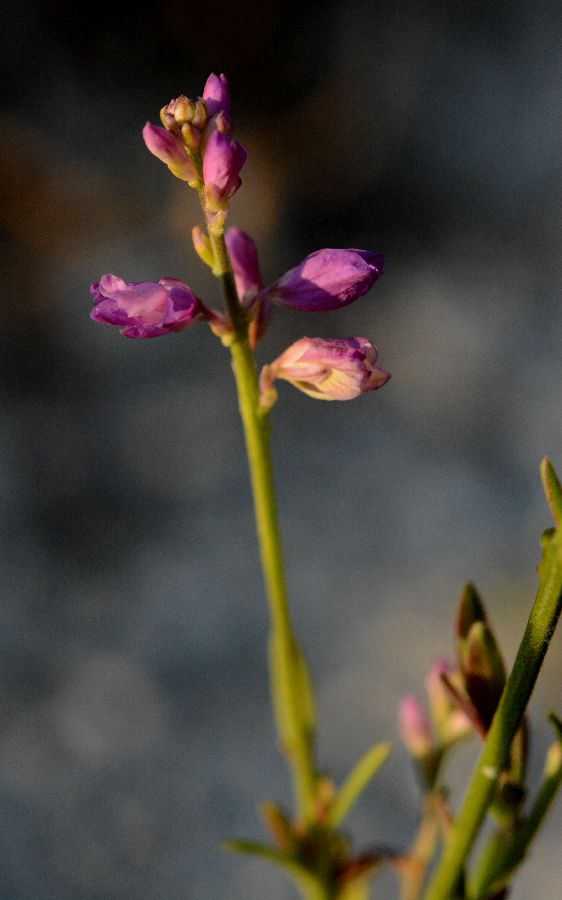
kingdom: Plantae
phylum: Tracheophyta
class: Magnoliopsida
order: Fabales
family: Polygalaceae
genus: Polygala
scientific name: Polygala nicaeensis
